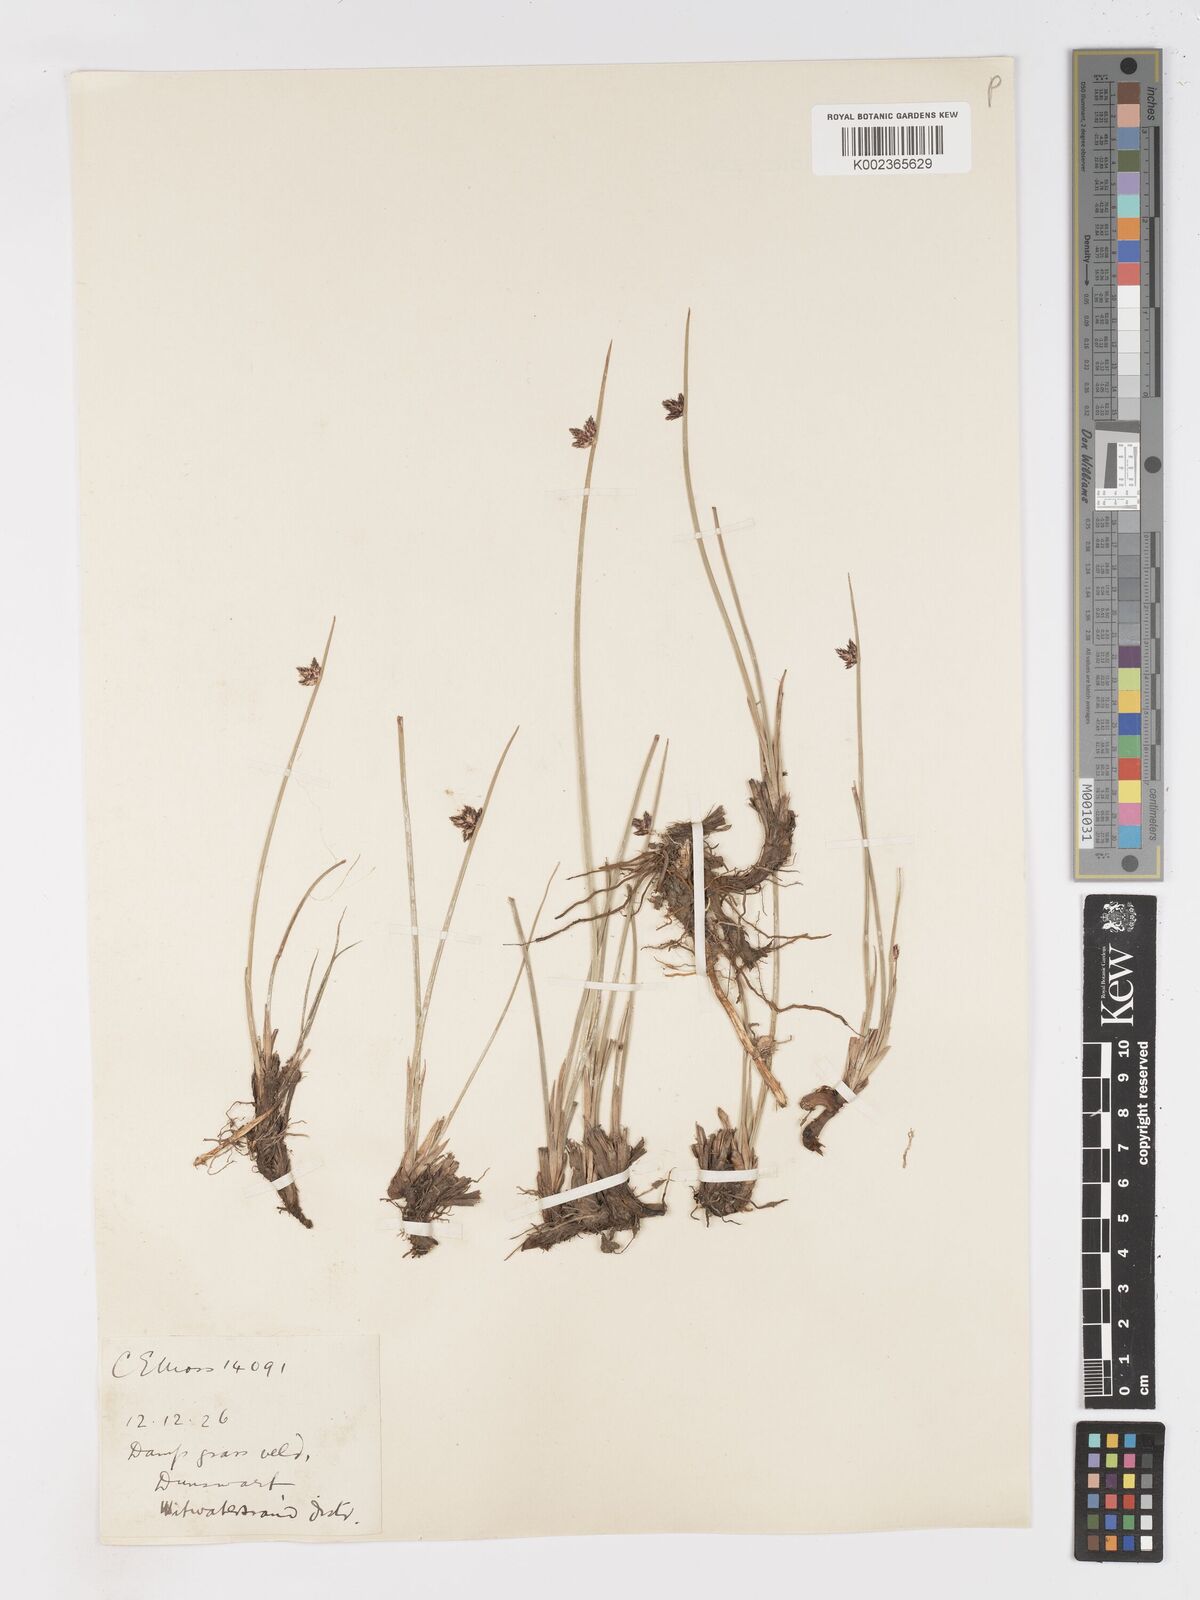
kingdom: Plantae
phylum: Tracheophyta
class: Liliopsida
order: Poales
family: Cyperaceae
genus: Schoenoplectus
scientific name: Schoenoplectus
